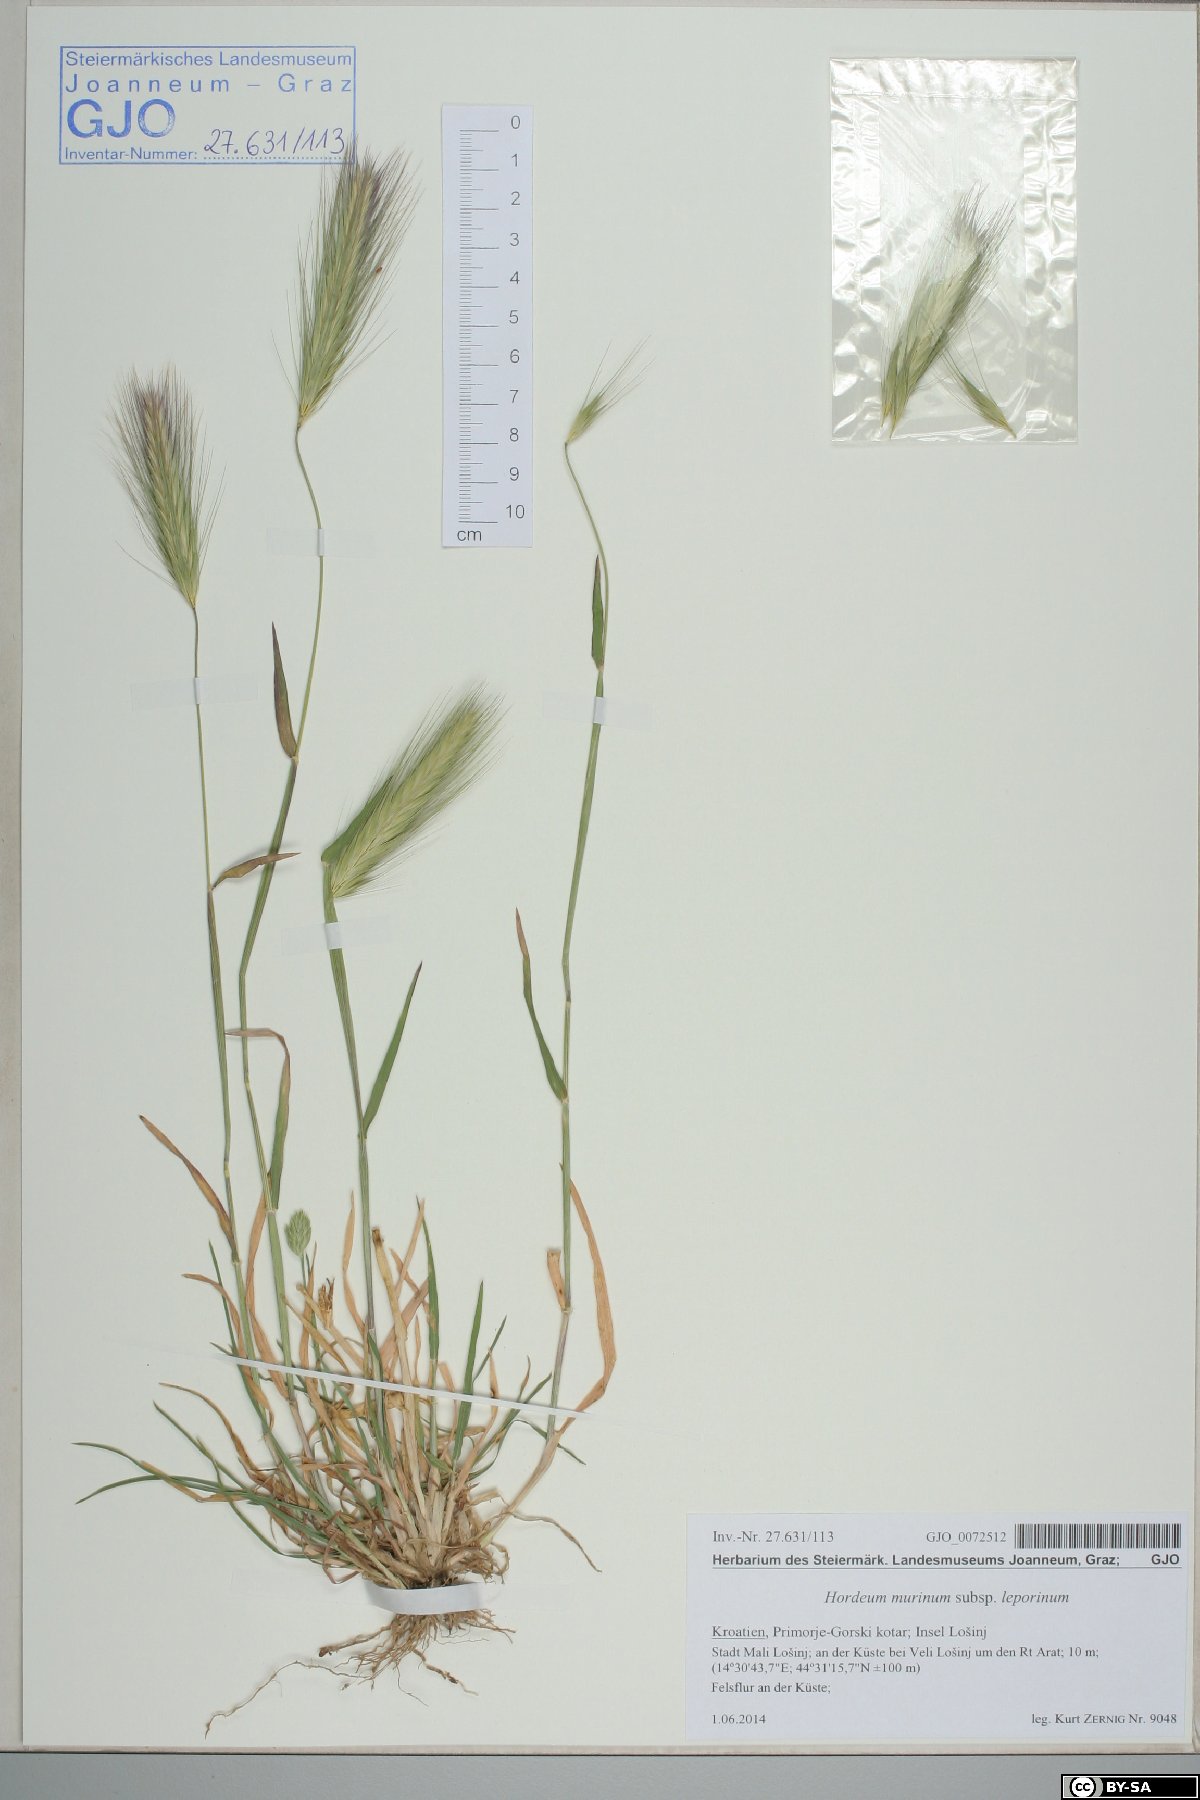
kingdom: Plantae
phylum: Tracheophyta
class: Liliopsida
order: Poales
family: Poaceae
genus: Hordeum
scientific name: Hordeum murinum
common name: Wall barley
